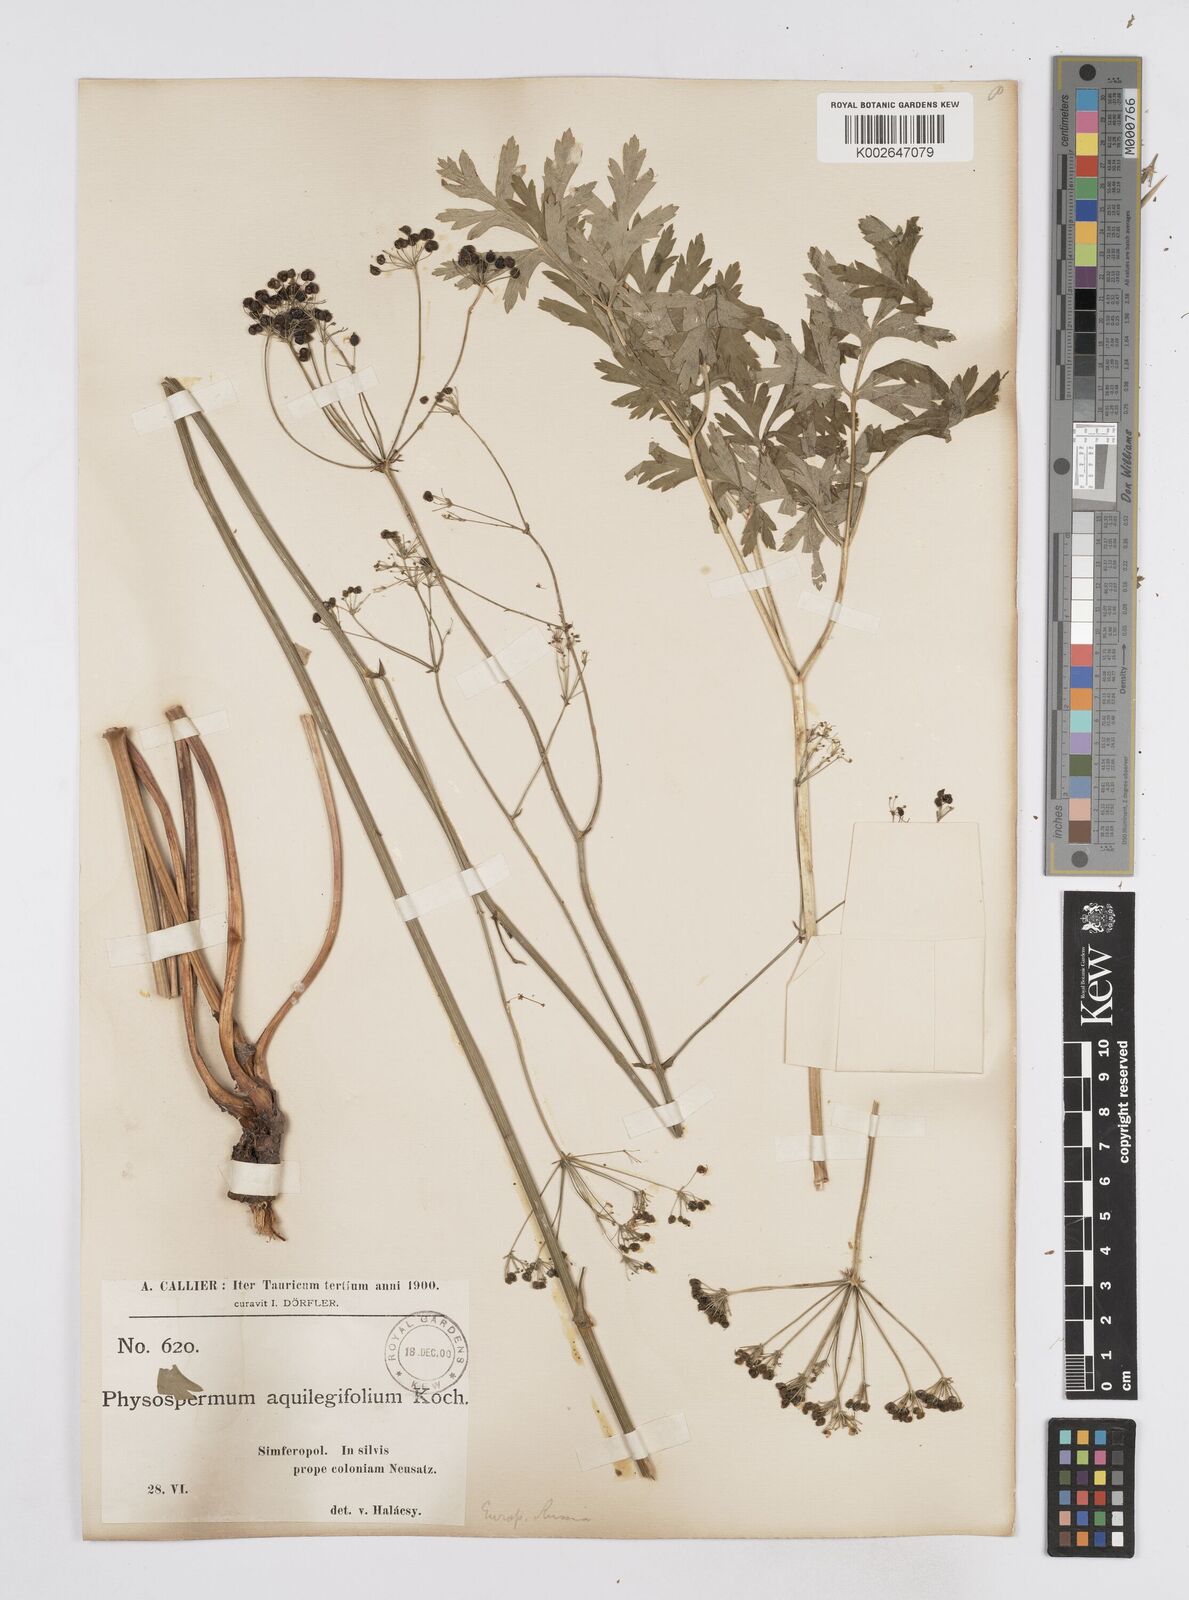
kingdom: Plantae
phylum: Tracheophyta
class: Magnoliopsida
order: Apiales
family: Apiaceae
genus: Physospermum
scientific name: Physospermum cornubiense
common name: Bladderseed
